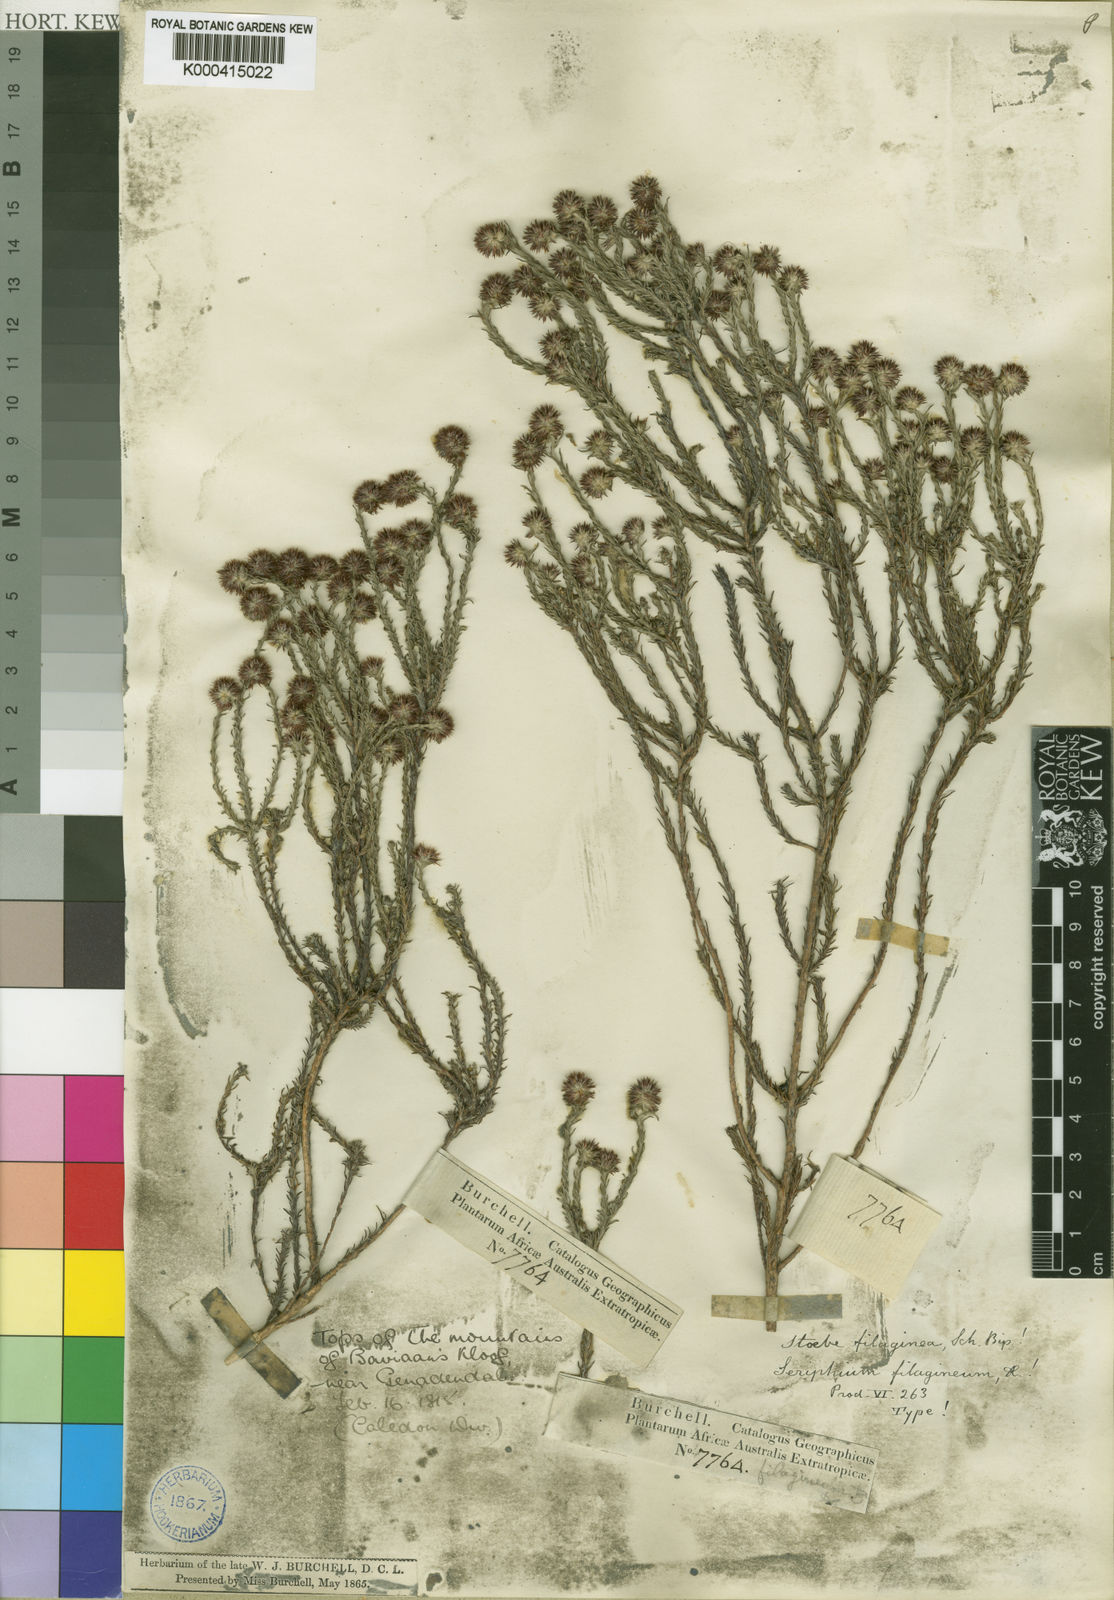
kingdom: Plantae
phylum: Tracheophyta
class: Magnoliopsida
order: Asterales
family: Asteraceae
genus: Seriphium
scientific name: Seriphium spirale
